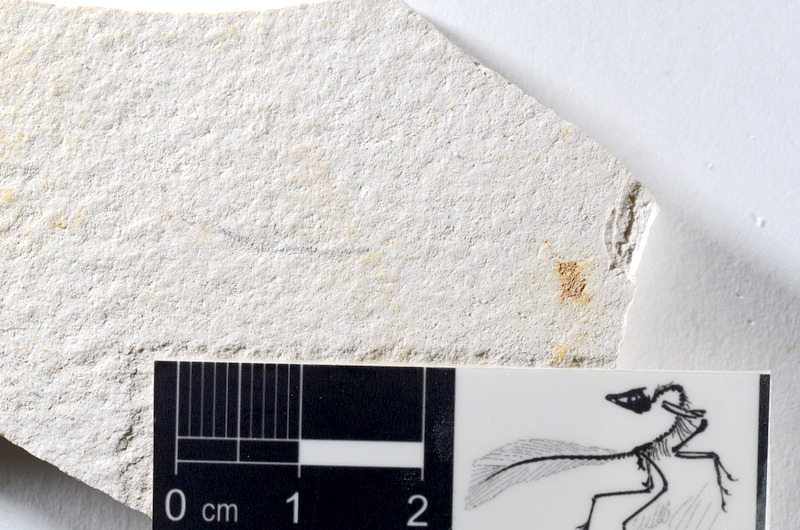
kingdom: Animalia
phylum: Chordata
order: Salmoniformes
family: Orthogonikleithridae
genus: Orthogonikleithrus
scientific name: Orthogonikleithrus hoelli
